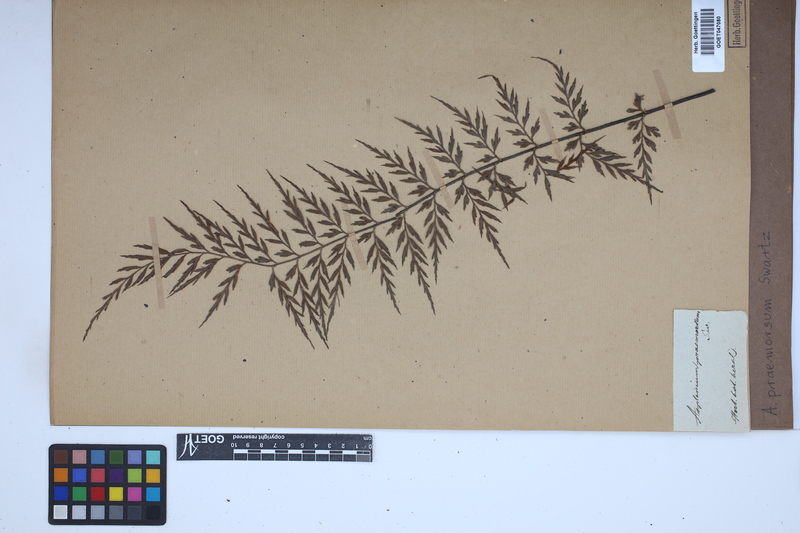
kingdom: Plantae
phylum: Tracheophyta
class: Polypodiopsida
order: Polypodiales
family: Aspleniaceae
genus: Asplenium
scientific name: Asplenium praemorsum
